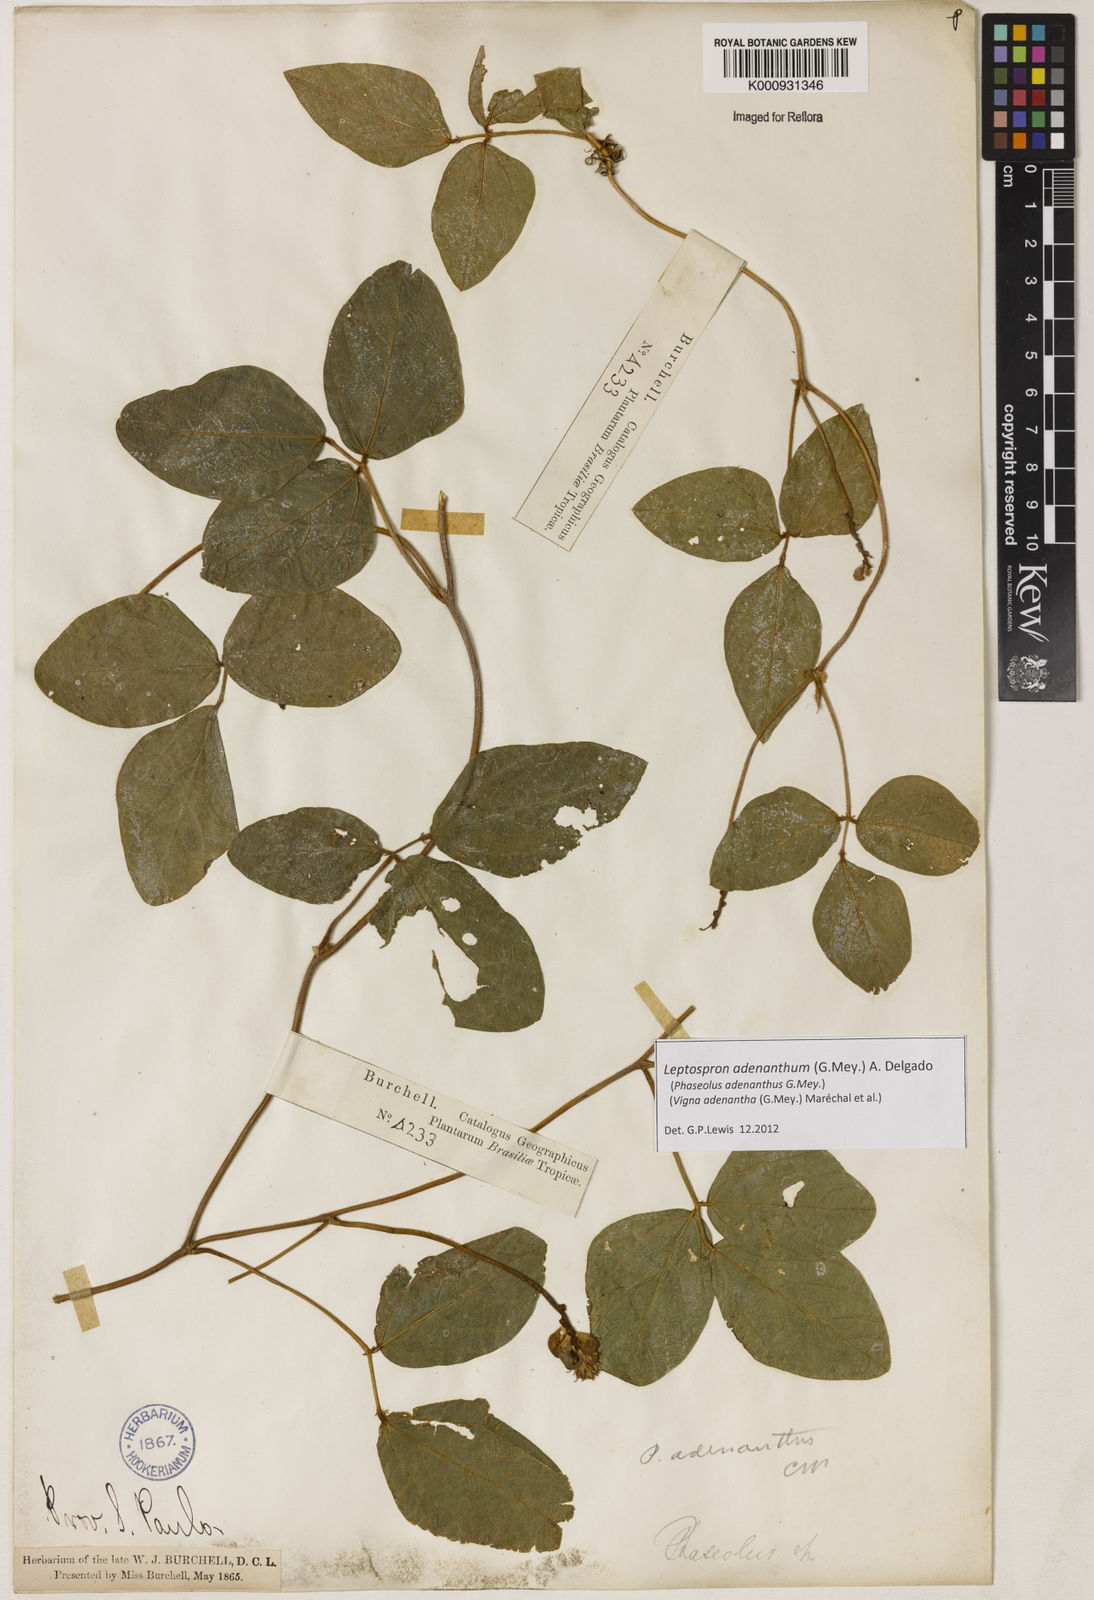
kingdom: Plantae
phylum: Tracheophyta
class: Magnoliopsida
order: Fabales
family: Fabaceae
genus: Leptospron
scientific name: Leptospron adenanthum
